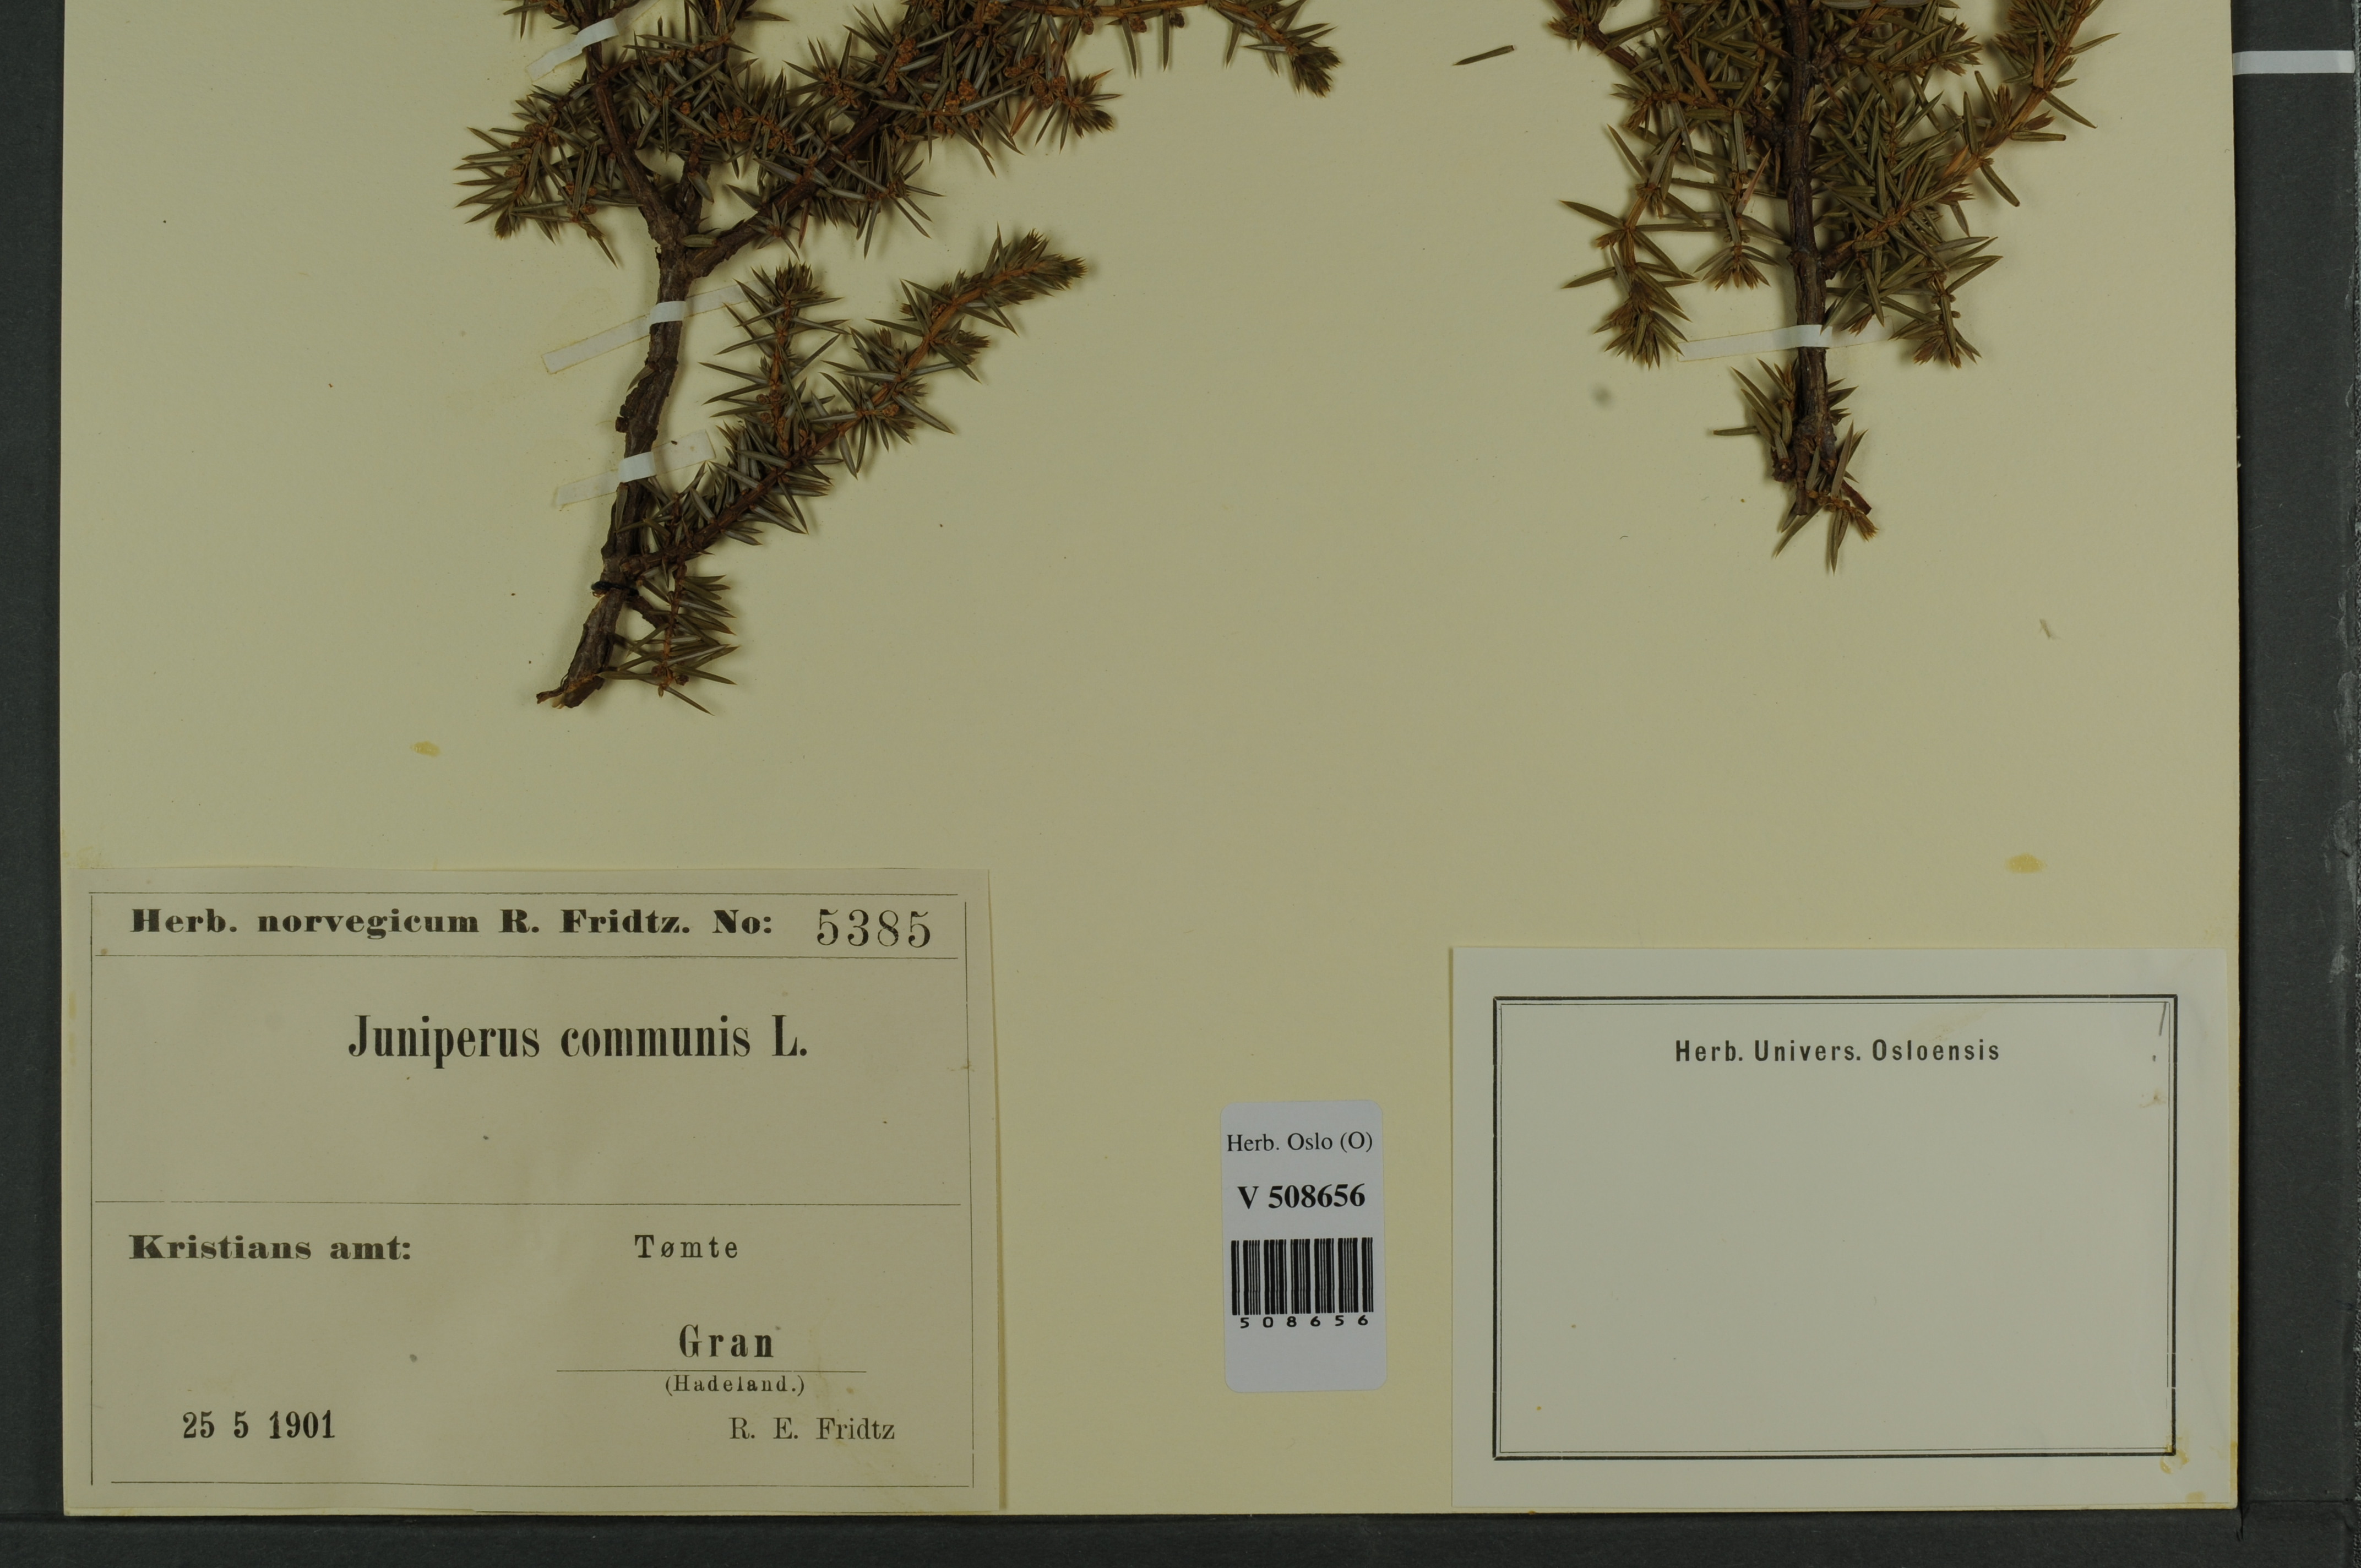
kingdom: Plantae
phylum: Tracheophyta
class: Pinopsida
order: Pinales
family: Cupressaceae
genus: Juniperus
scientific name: Juniperus communis
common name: Common juniper
